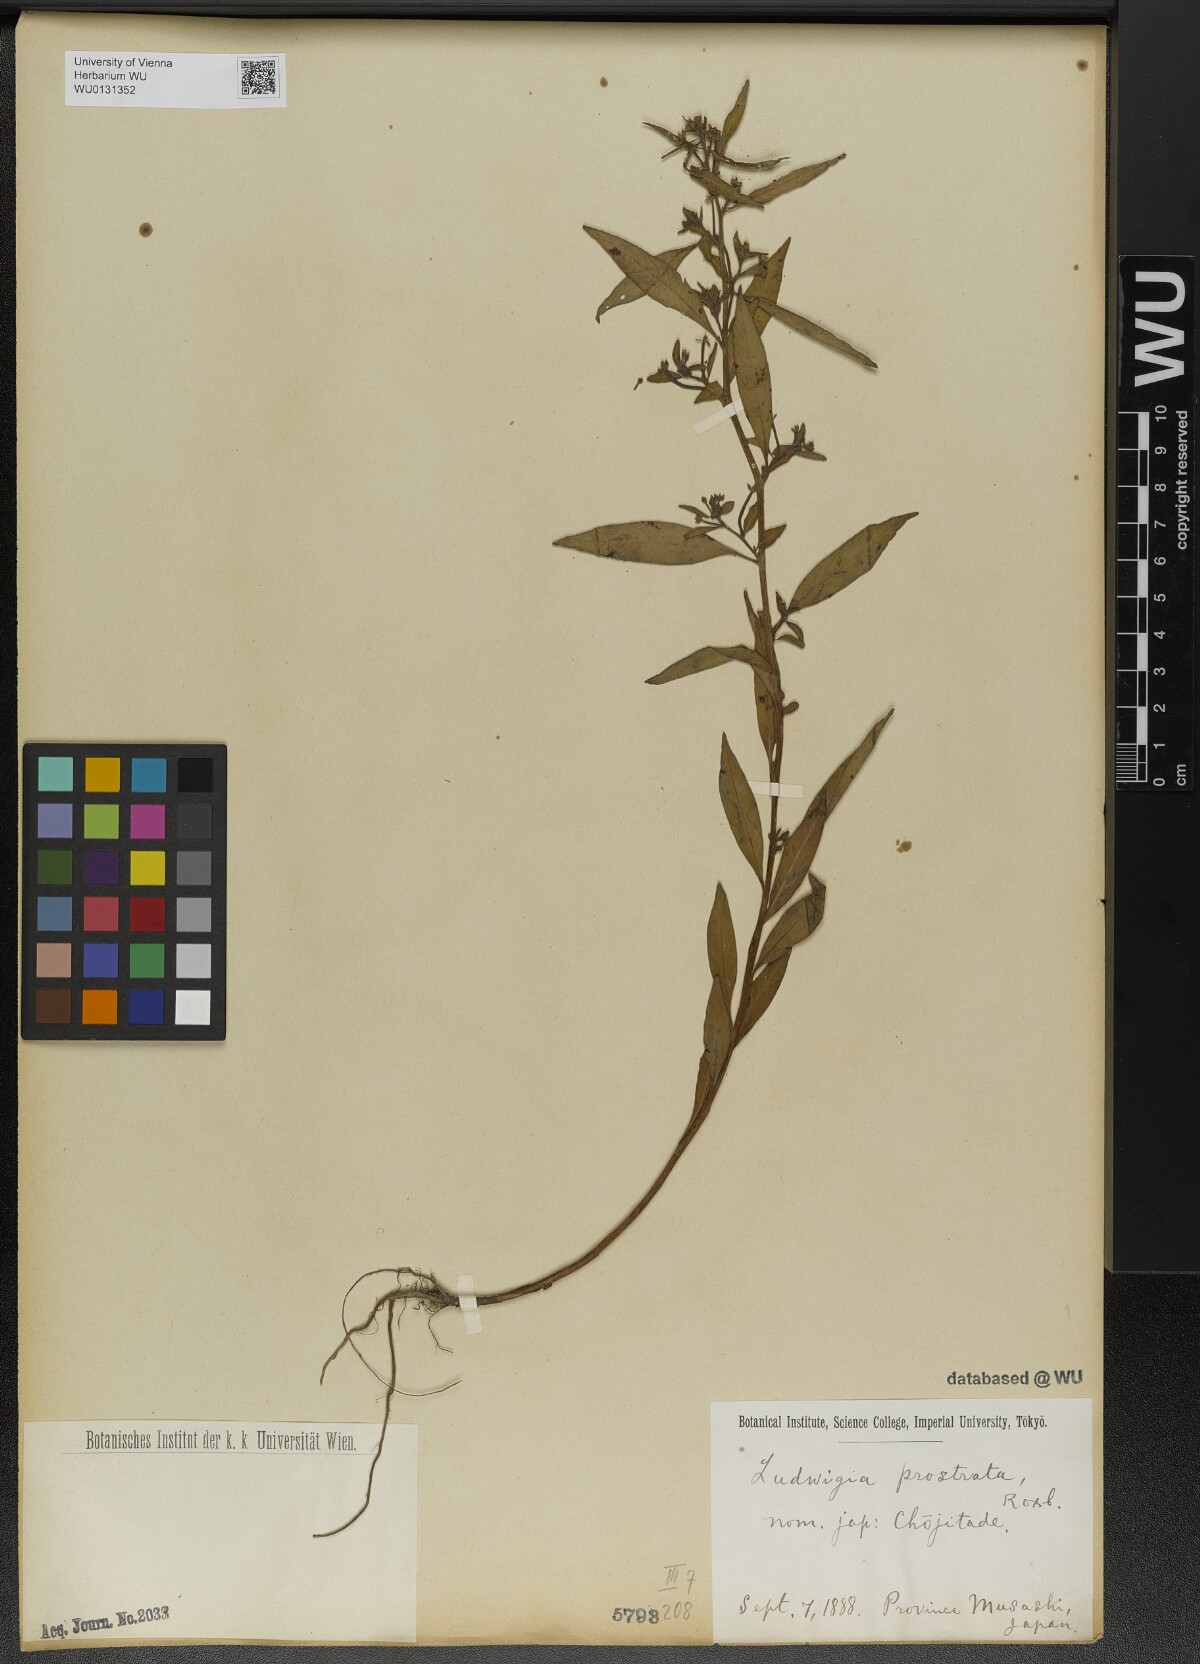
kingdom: Plantae
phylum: Tracheophyta
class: Magnoliopsida
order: Myrtales
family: Onagraceae
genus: Ludwigia
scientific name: Ludwigia prostrata
